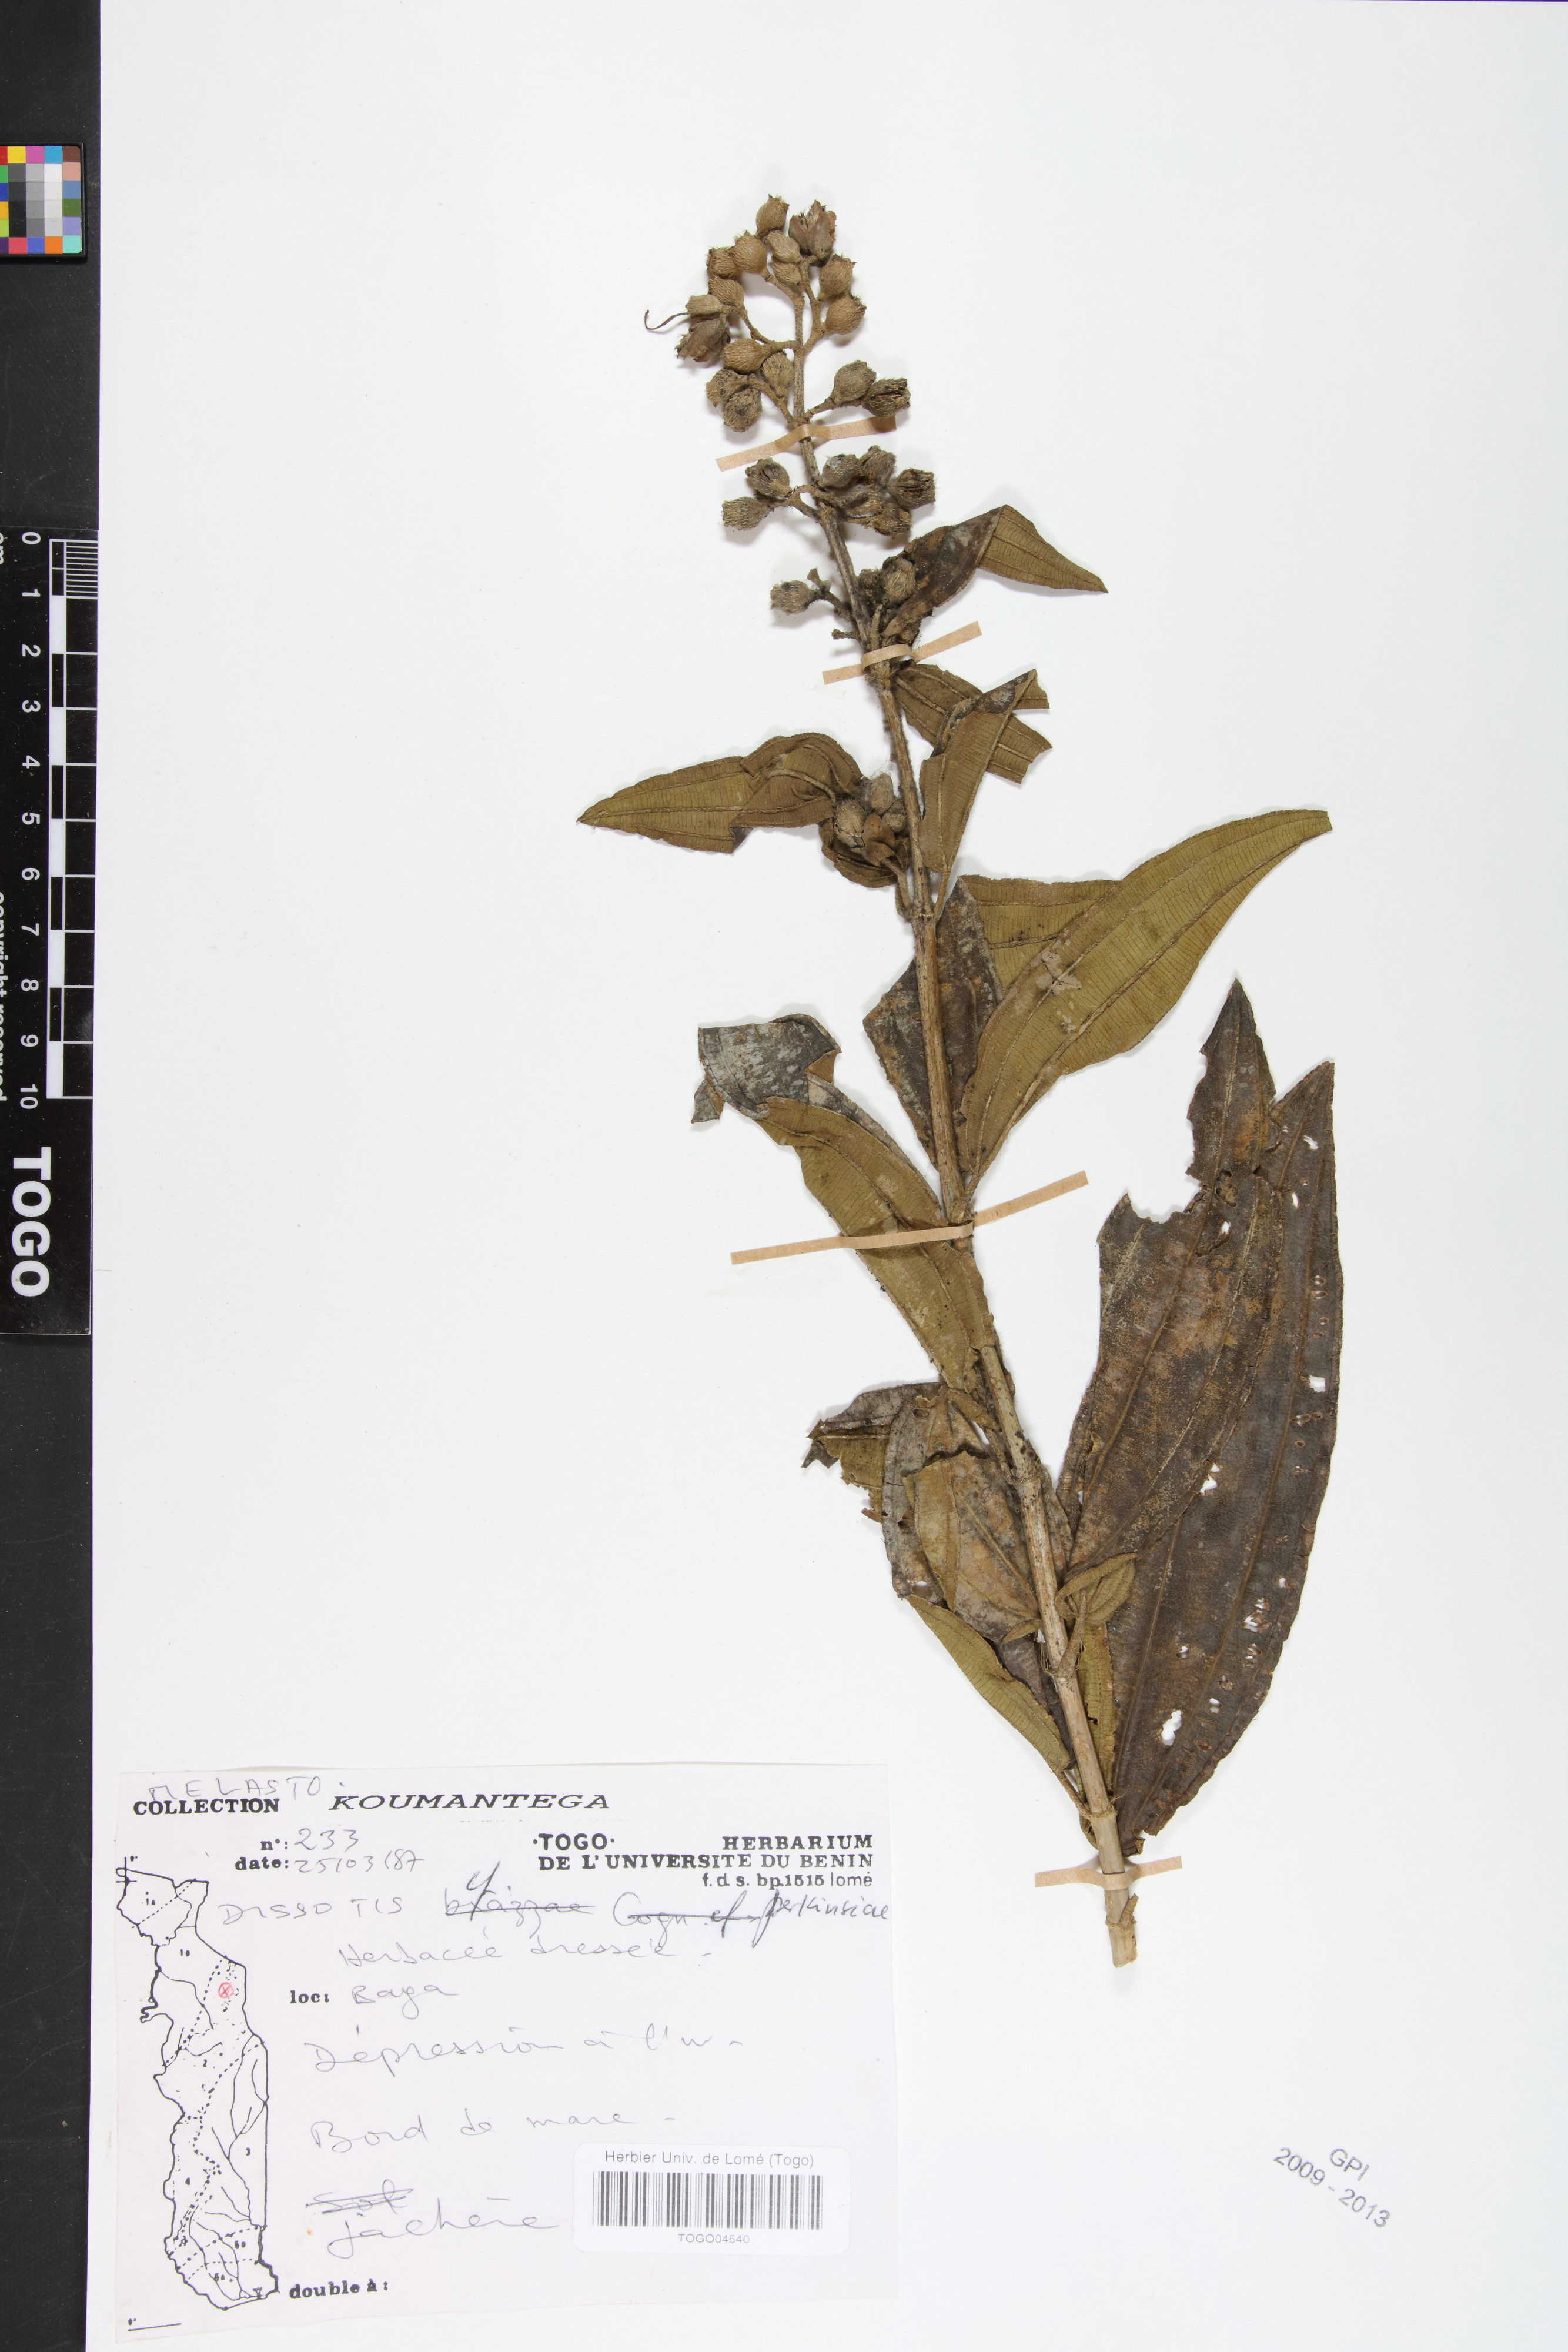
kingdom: Plantae
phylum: Tracheophyta
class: Magnoliopsida
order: Myrtales
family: Melastomataceae
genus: Feliciotis
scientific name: Feliciotis perkinsiae
